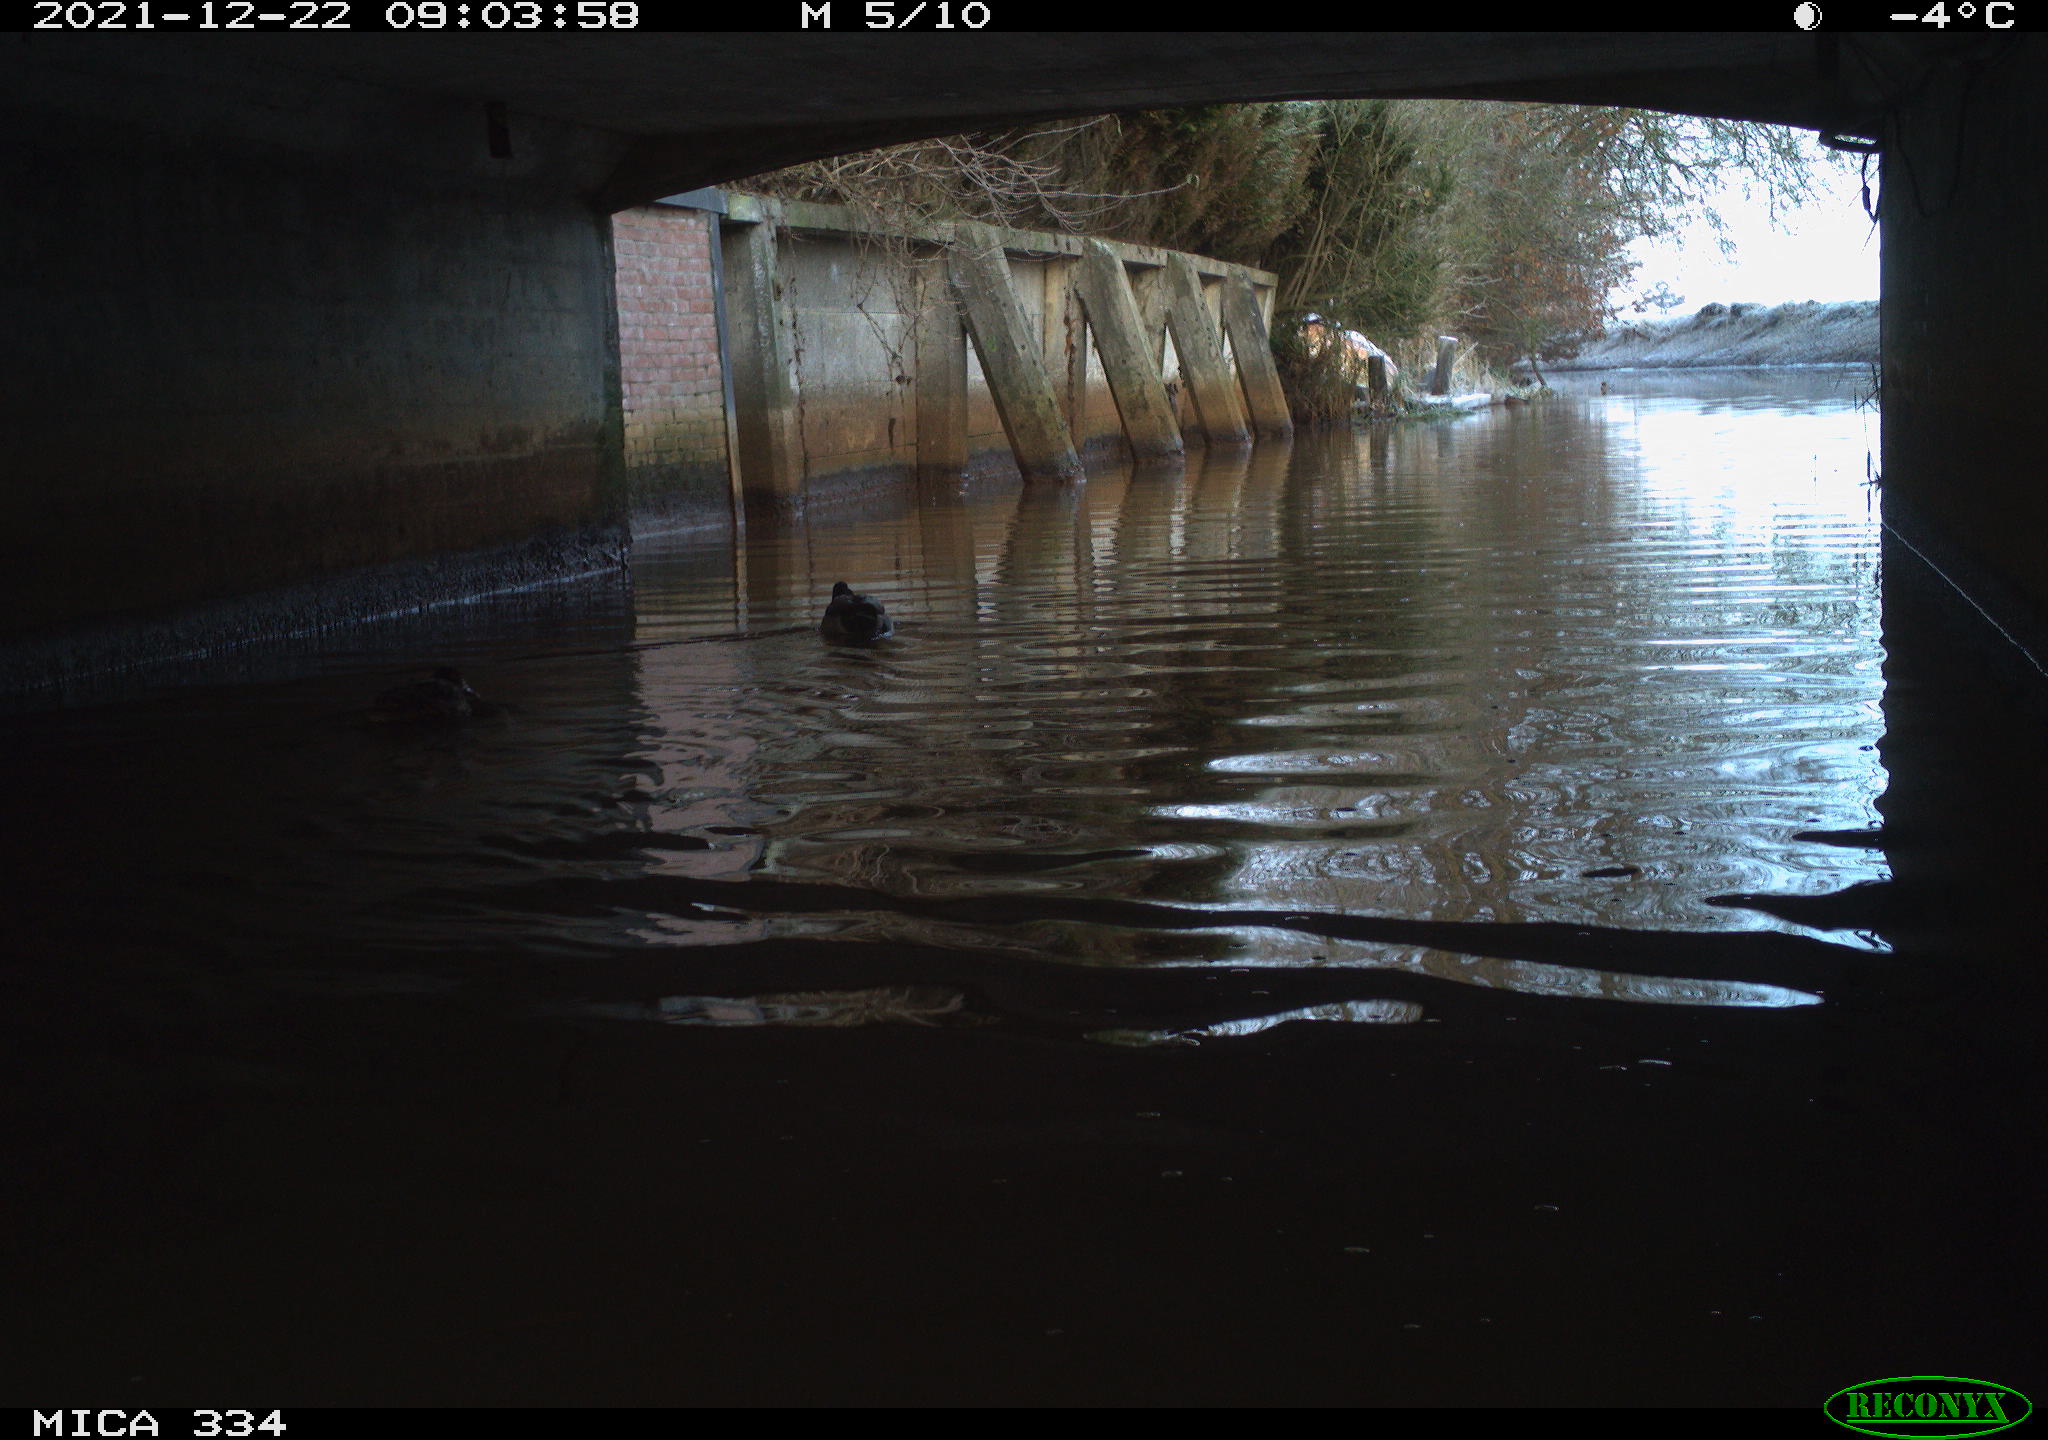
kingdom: Animalia
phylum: Chordata
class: Aves
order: Anseriformes
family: Anatidae
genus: Anas
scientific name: Anas platyrhynchos
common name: Mallard
